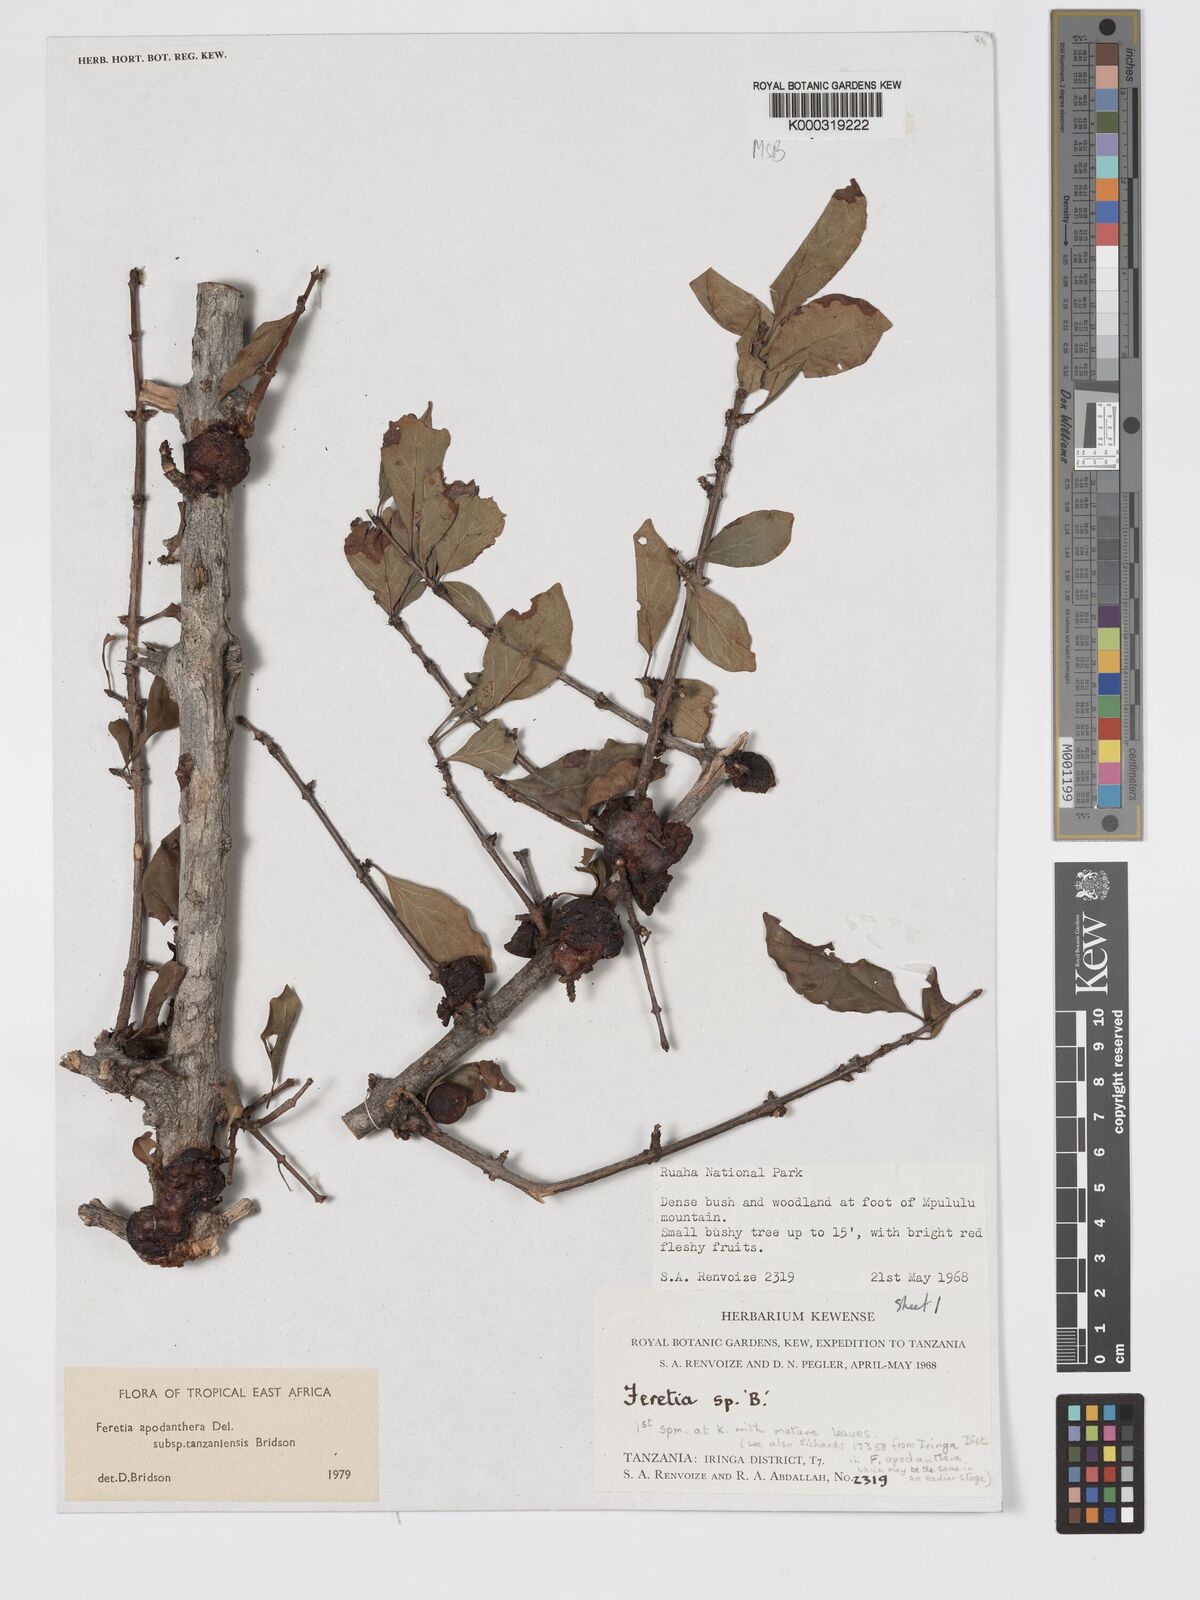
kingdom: Plantae
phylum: Tracheophyta
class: Magnoliopsida
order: Gentianales
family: Rubiaceae
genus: Feretia
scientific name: Feretia apodanthera
